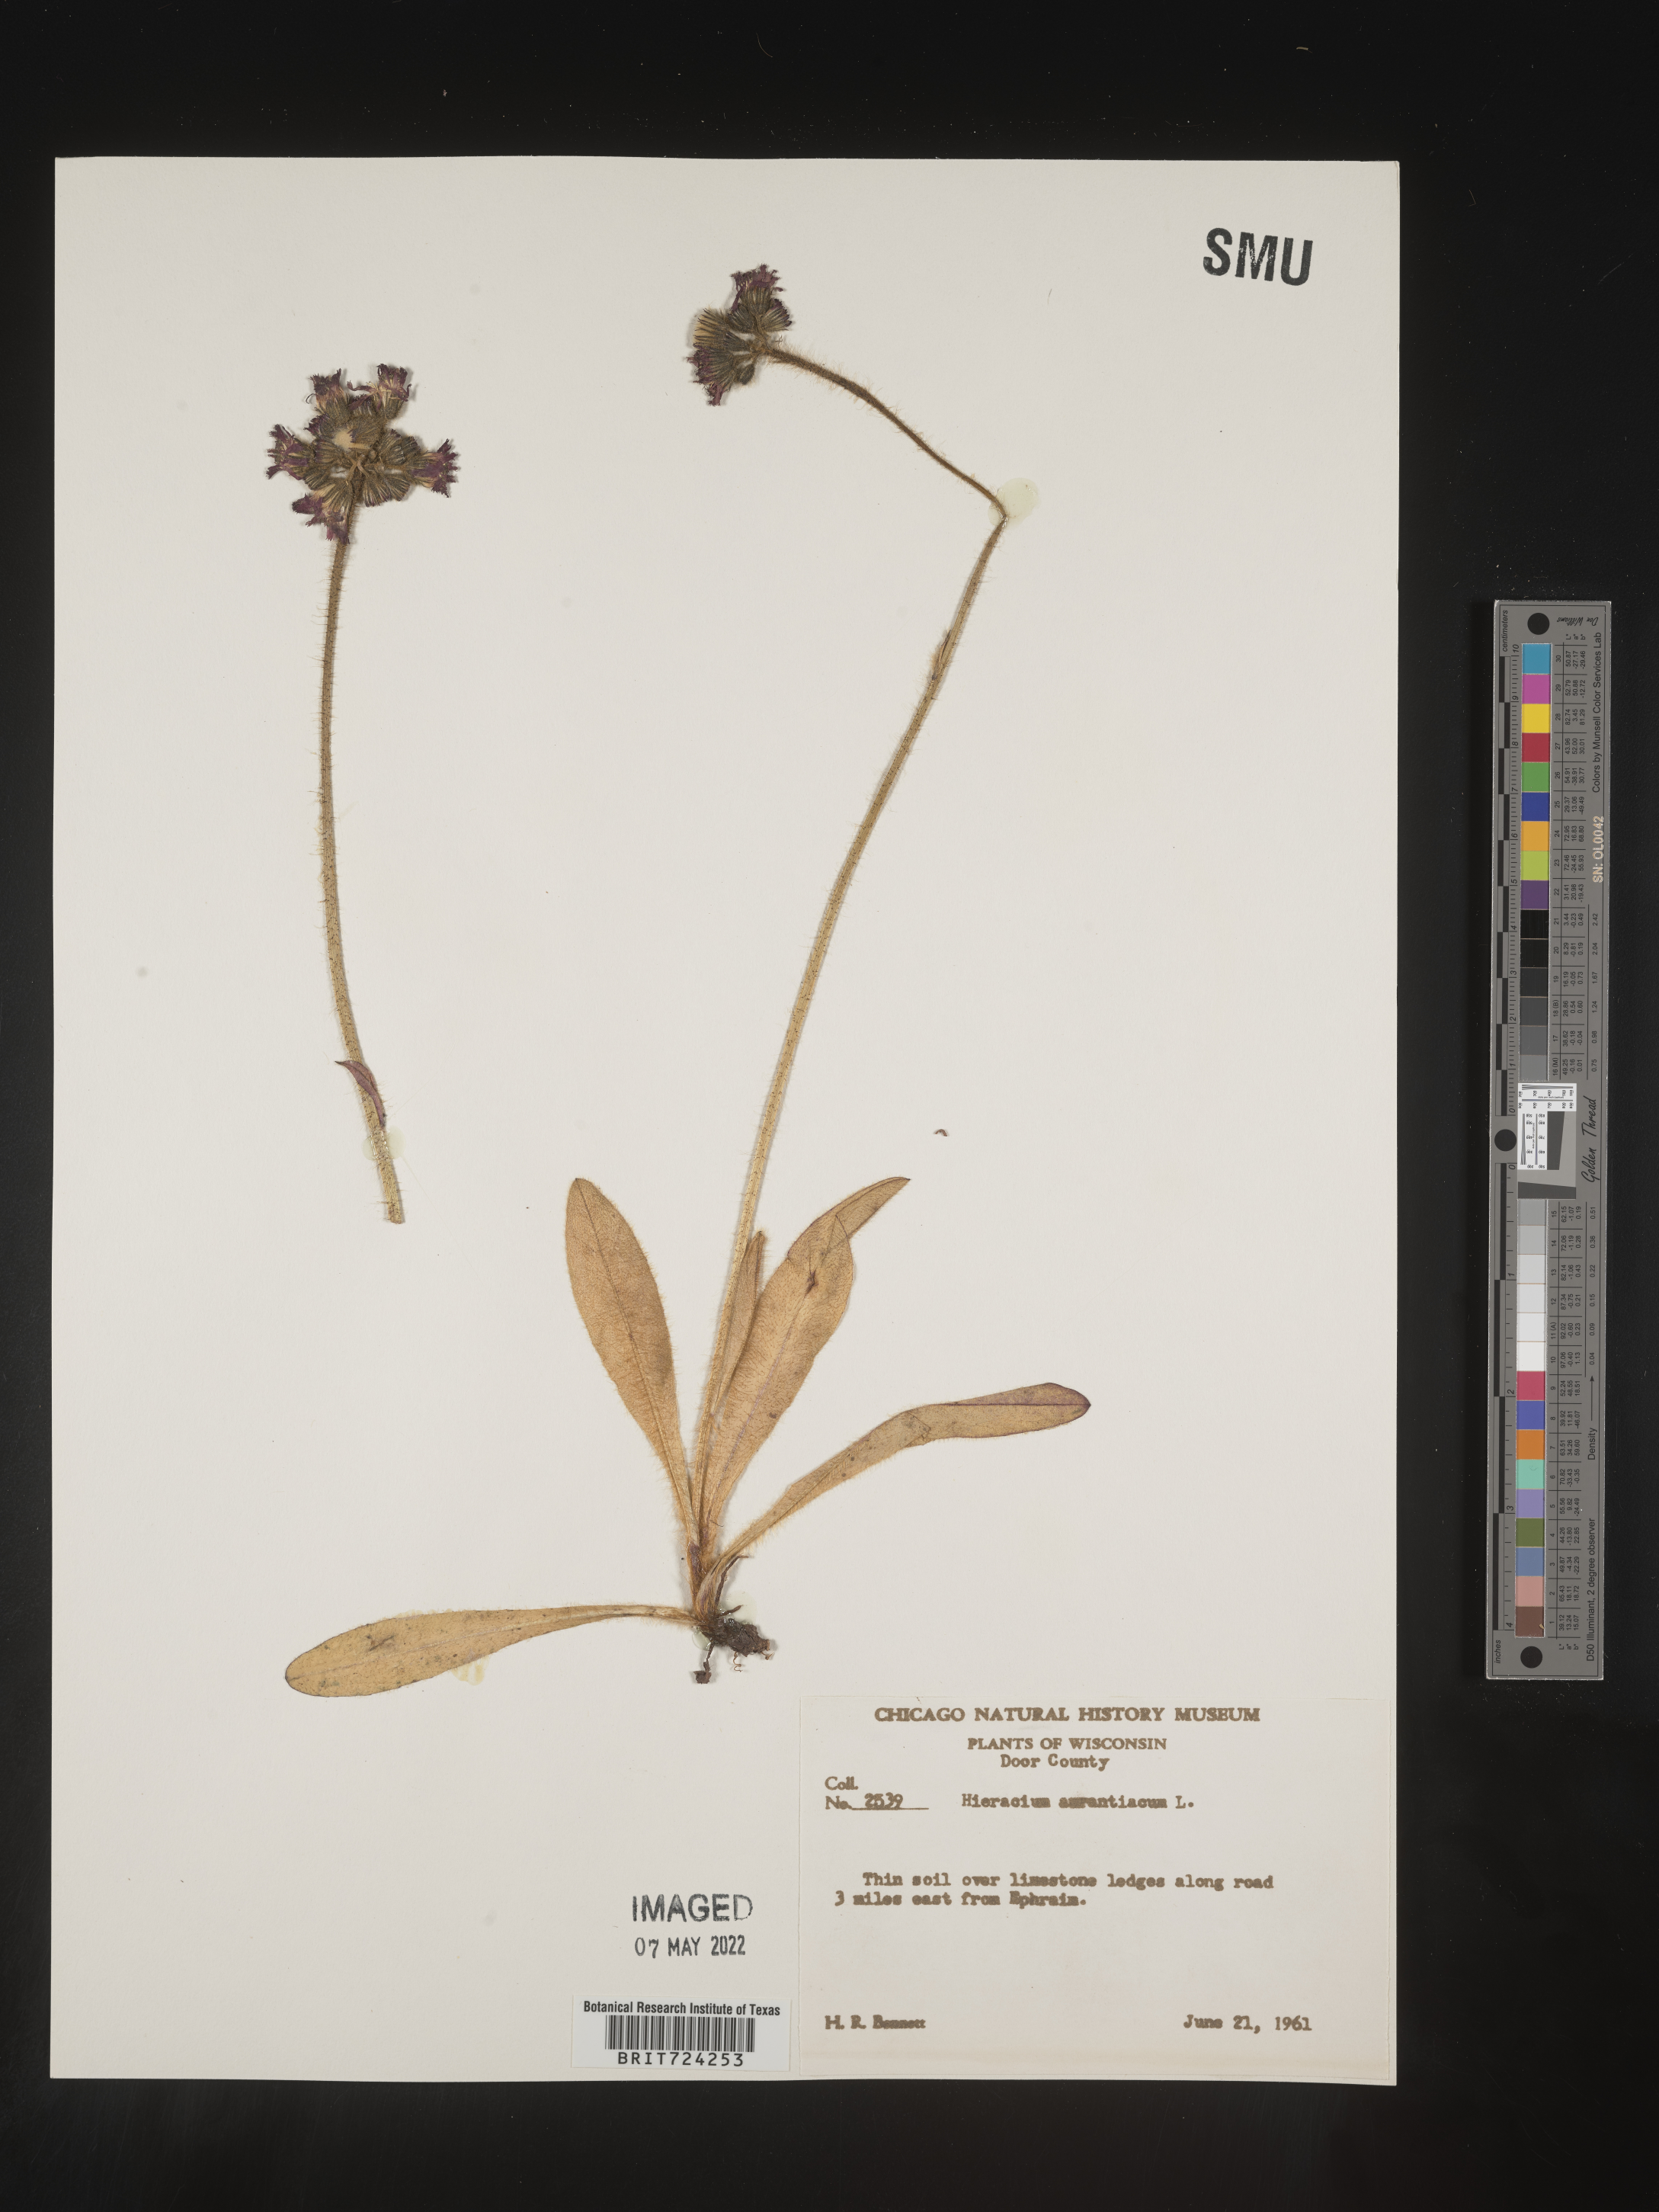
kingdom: Plantae
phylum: Tracheophyta
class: Magnoliopsida
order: Asterales
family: Asteraceae
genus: Pilosella
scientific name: Pilosella aurantiaca
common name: Fox-and-cubs
